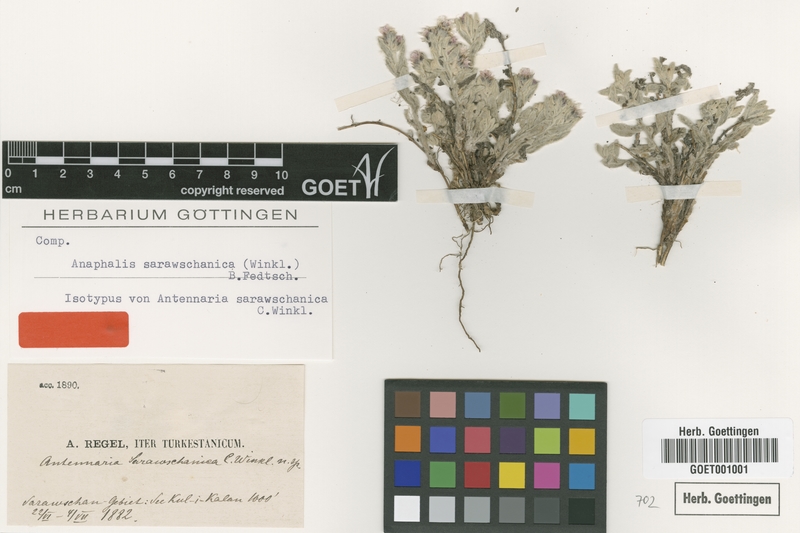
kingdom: Plantae
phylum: Tracheophyta
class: Magnoliopsida
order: Asterales
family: Asteraceae
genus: Anaphalis
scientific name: Anaphalis sarawschanica
